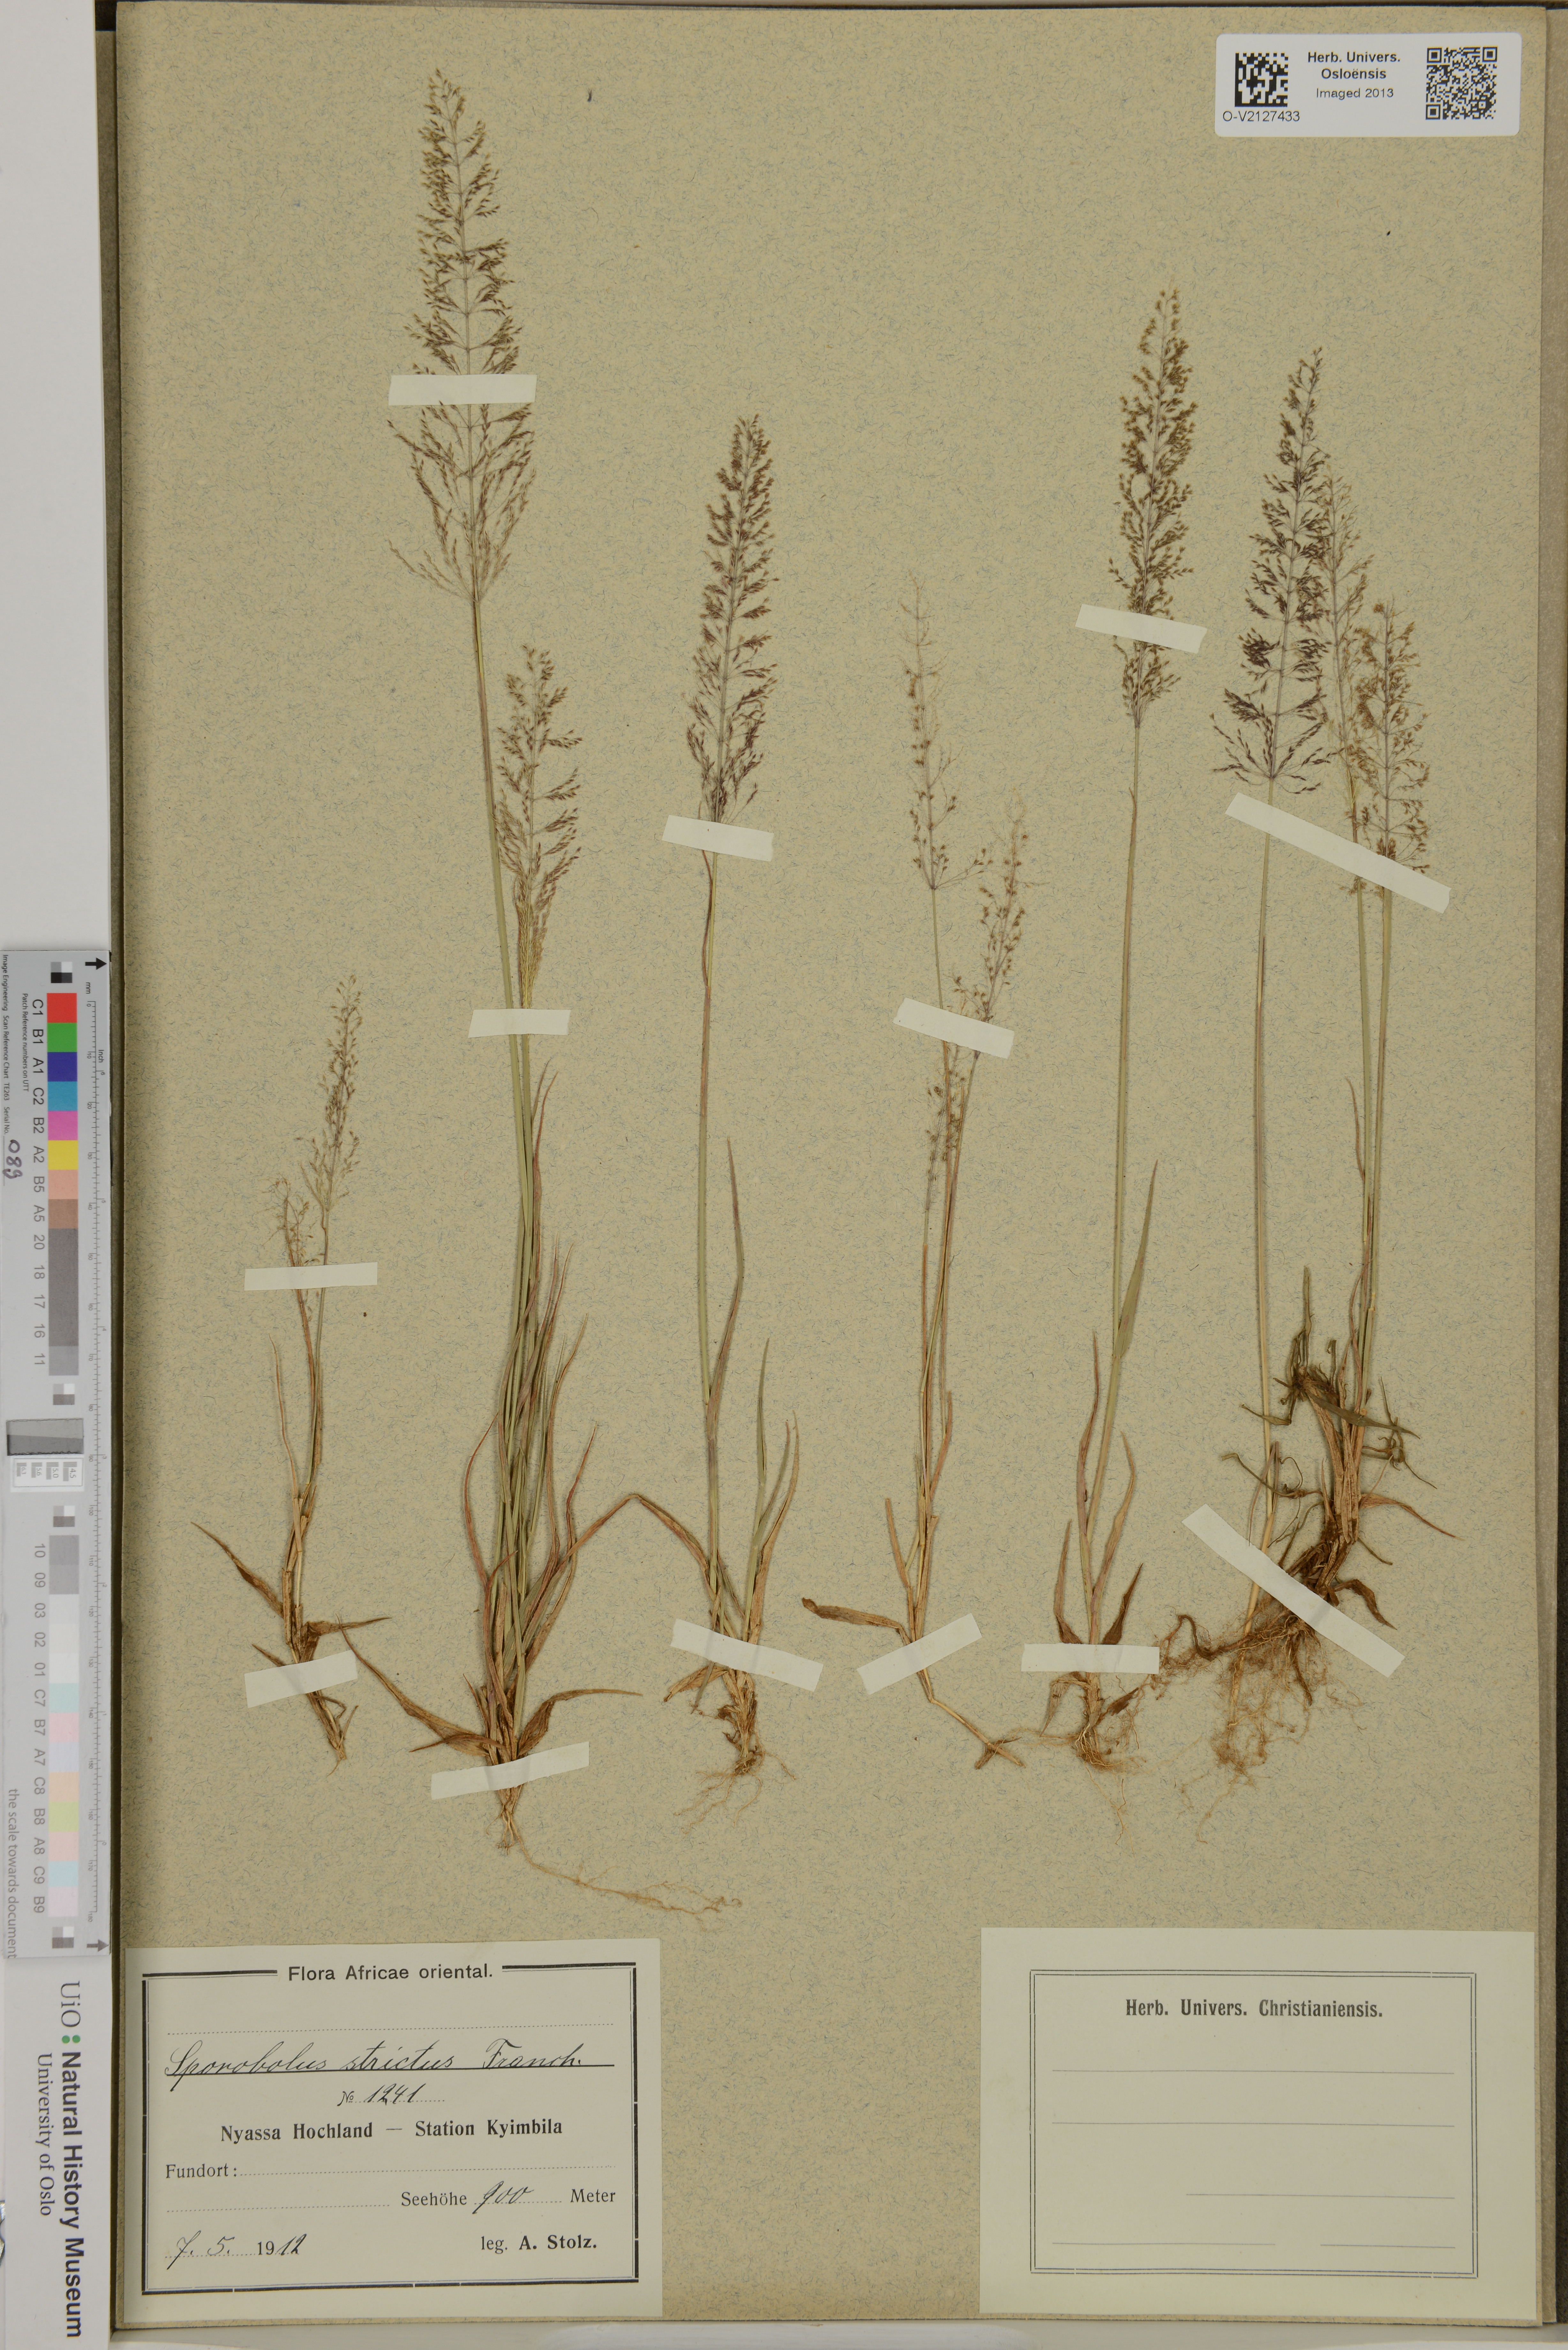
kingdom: Plantae
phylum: Tracheophyta
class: Liliopsida
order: Poales
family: Poaceae
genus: Sporobolus
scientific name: Sporobolus
